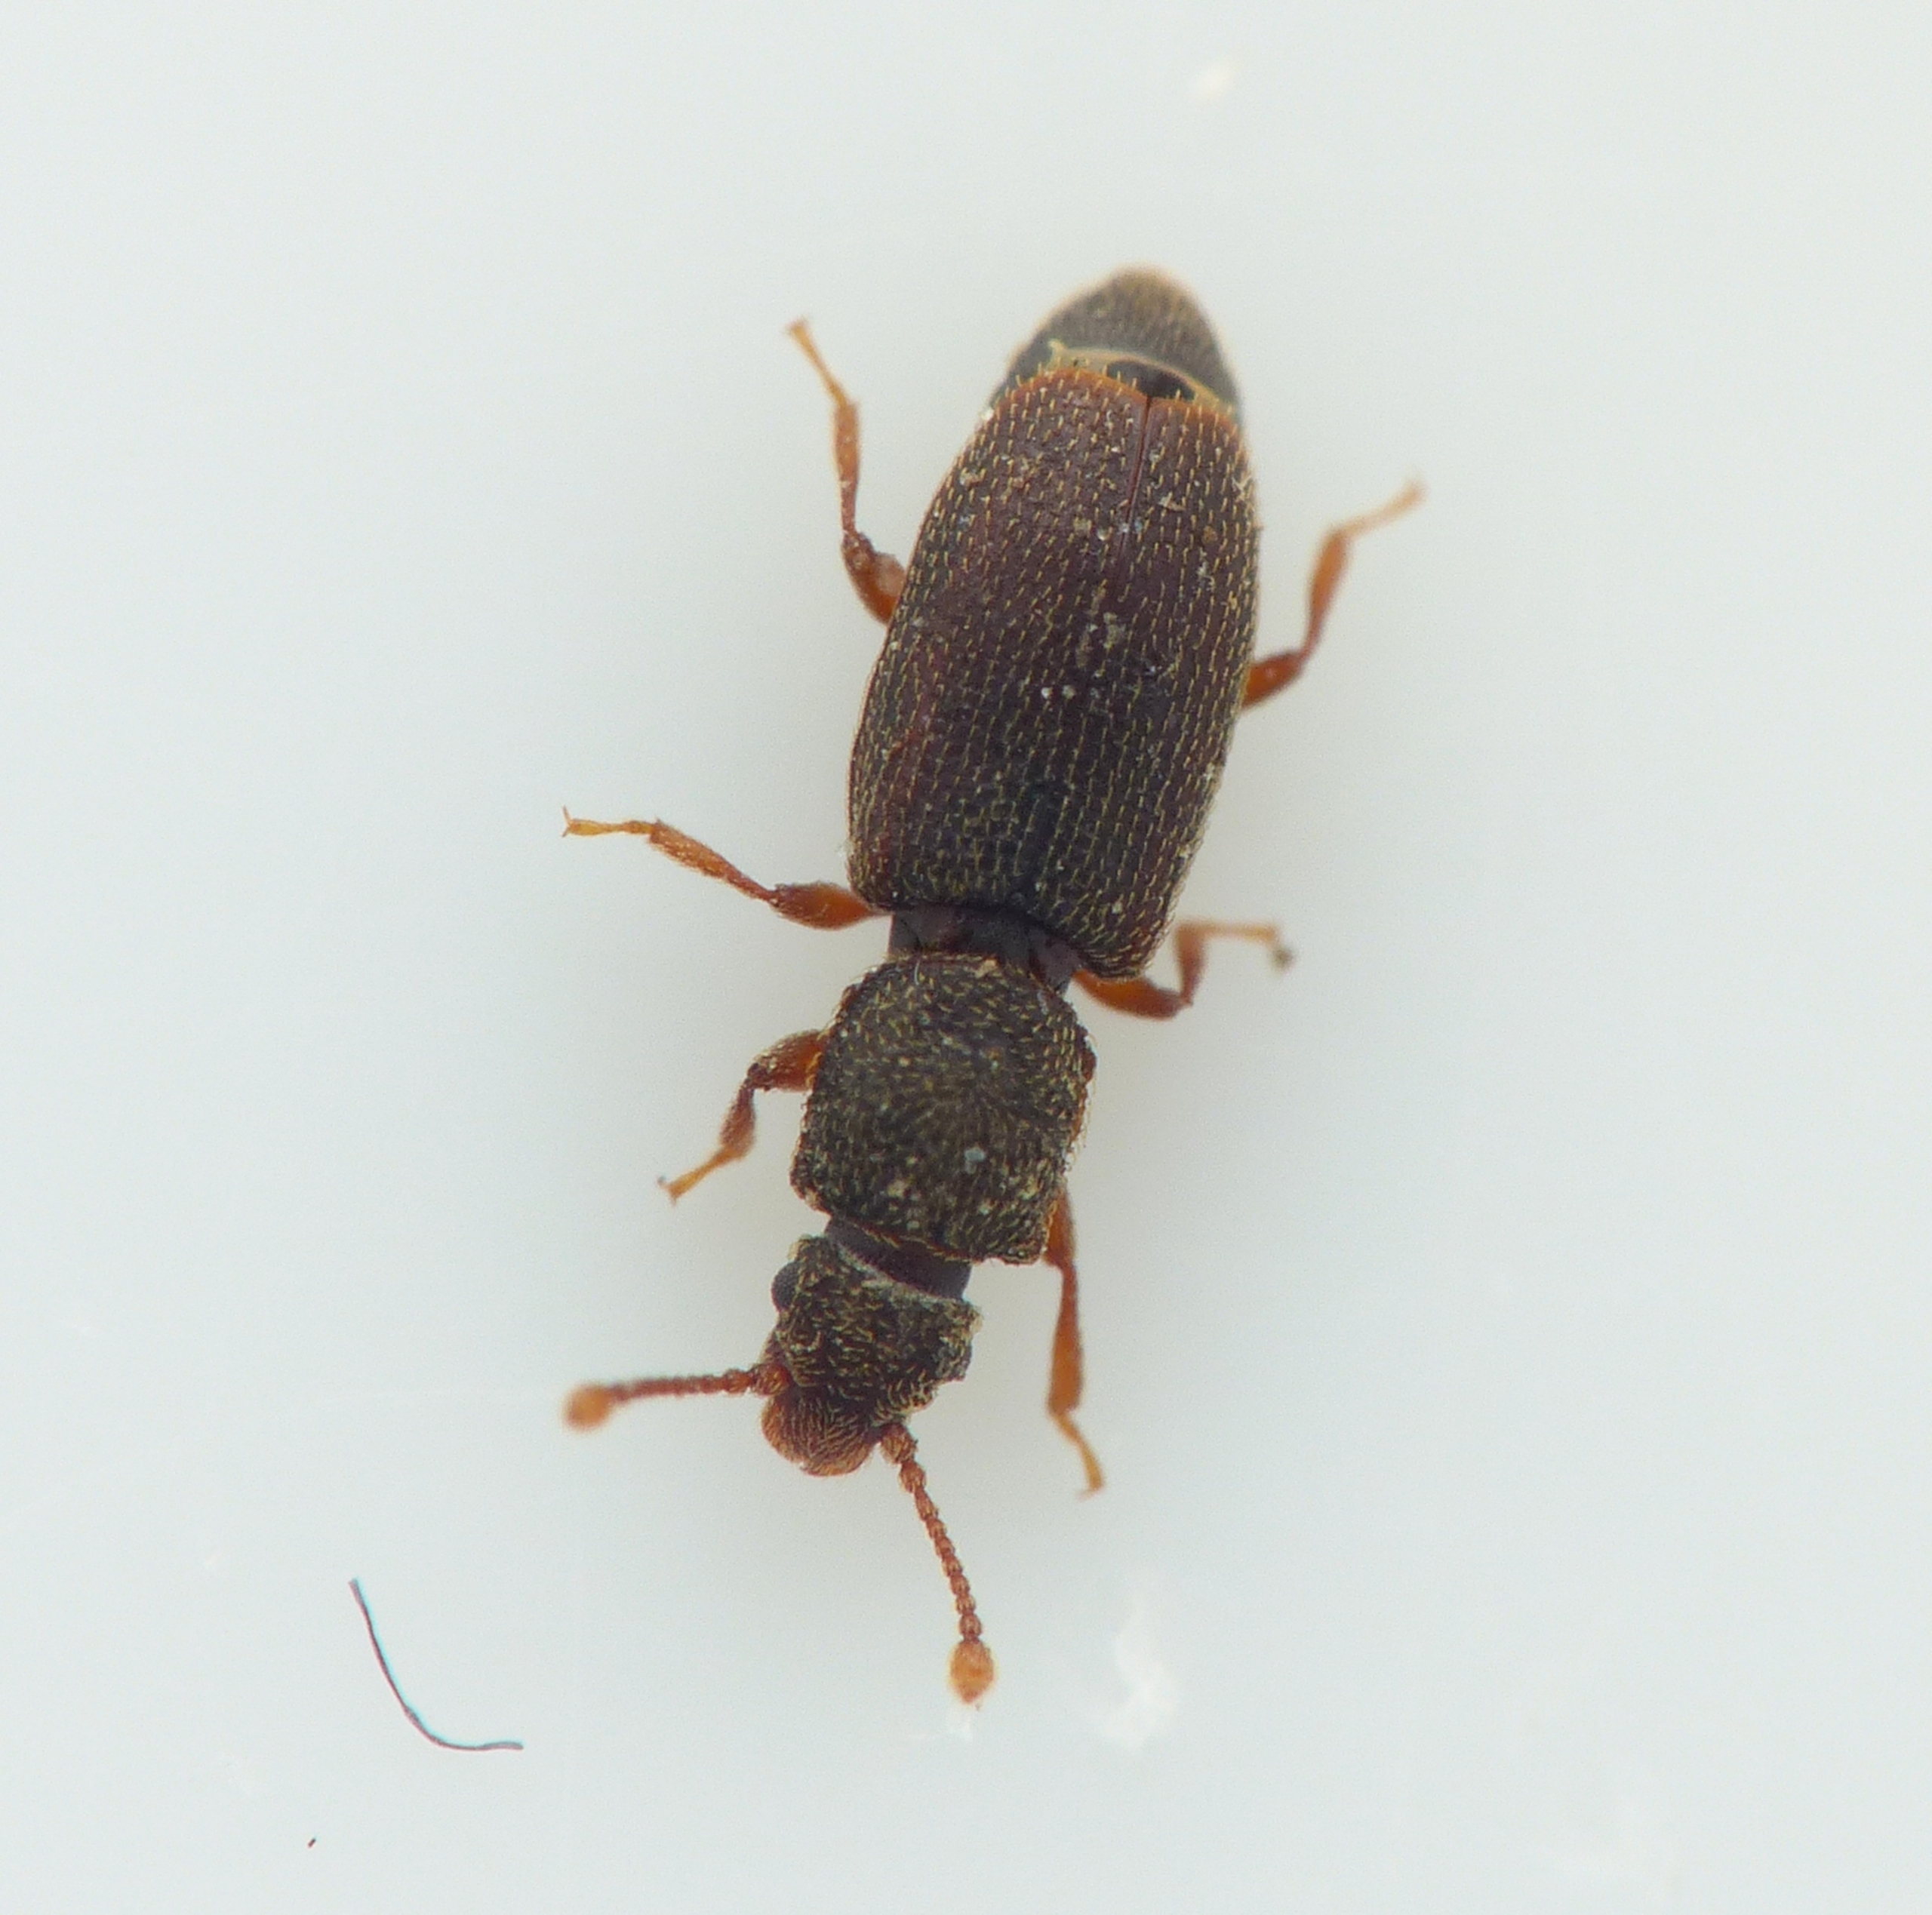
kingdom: Animalia
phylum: Arthropoda
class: Insecta
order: Coleoptera
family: Monotomidae
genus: Monotoma
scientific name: Monotoma quadricollis
